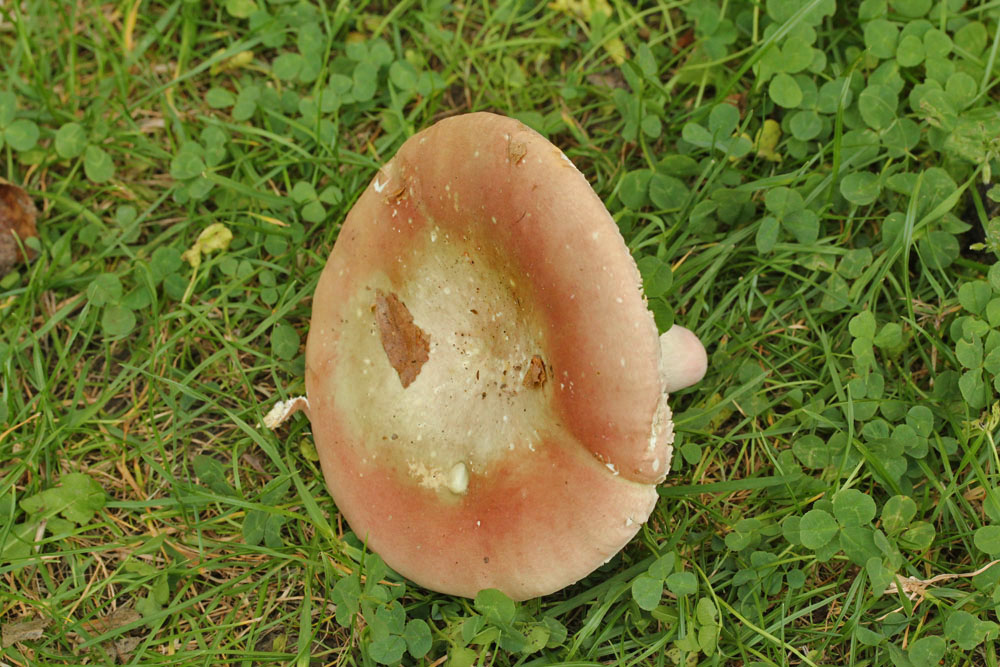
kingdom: Fungi
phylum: Basidiomycota
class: Agaricomycetes
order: Russulales
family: Russulaceae
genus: Russula
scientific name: Russula olivacea
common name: stor skørhat
